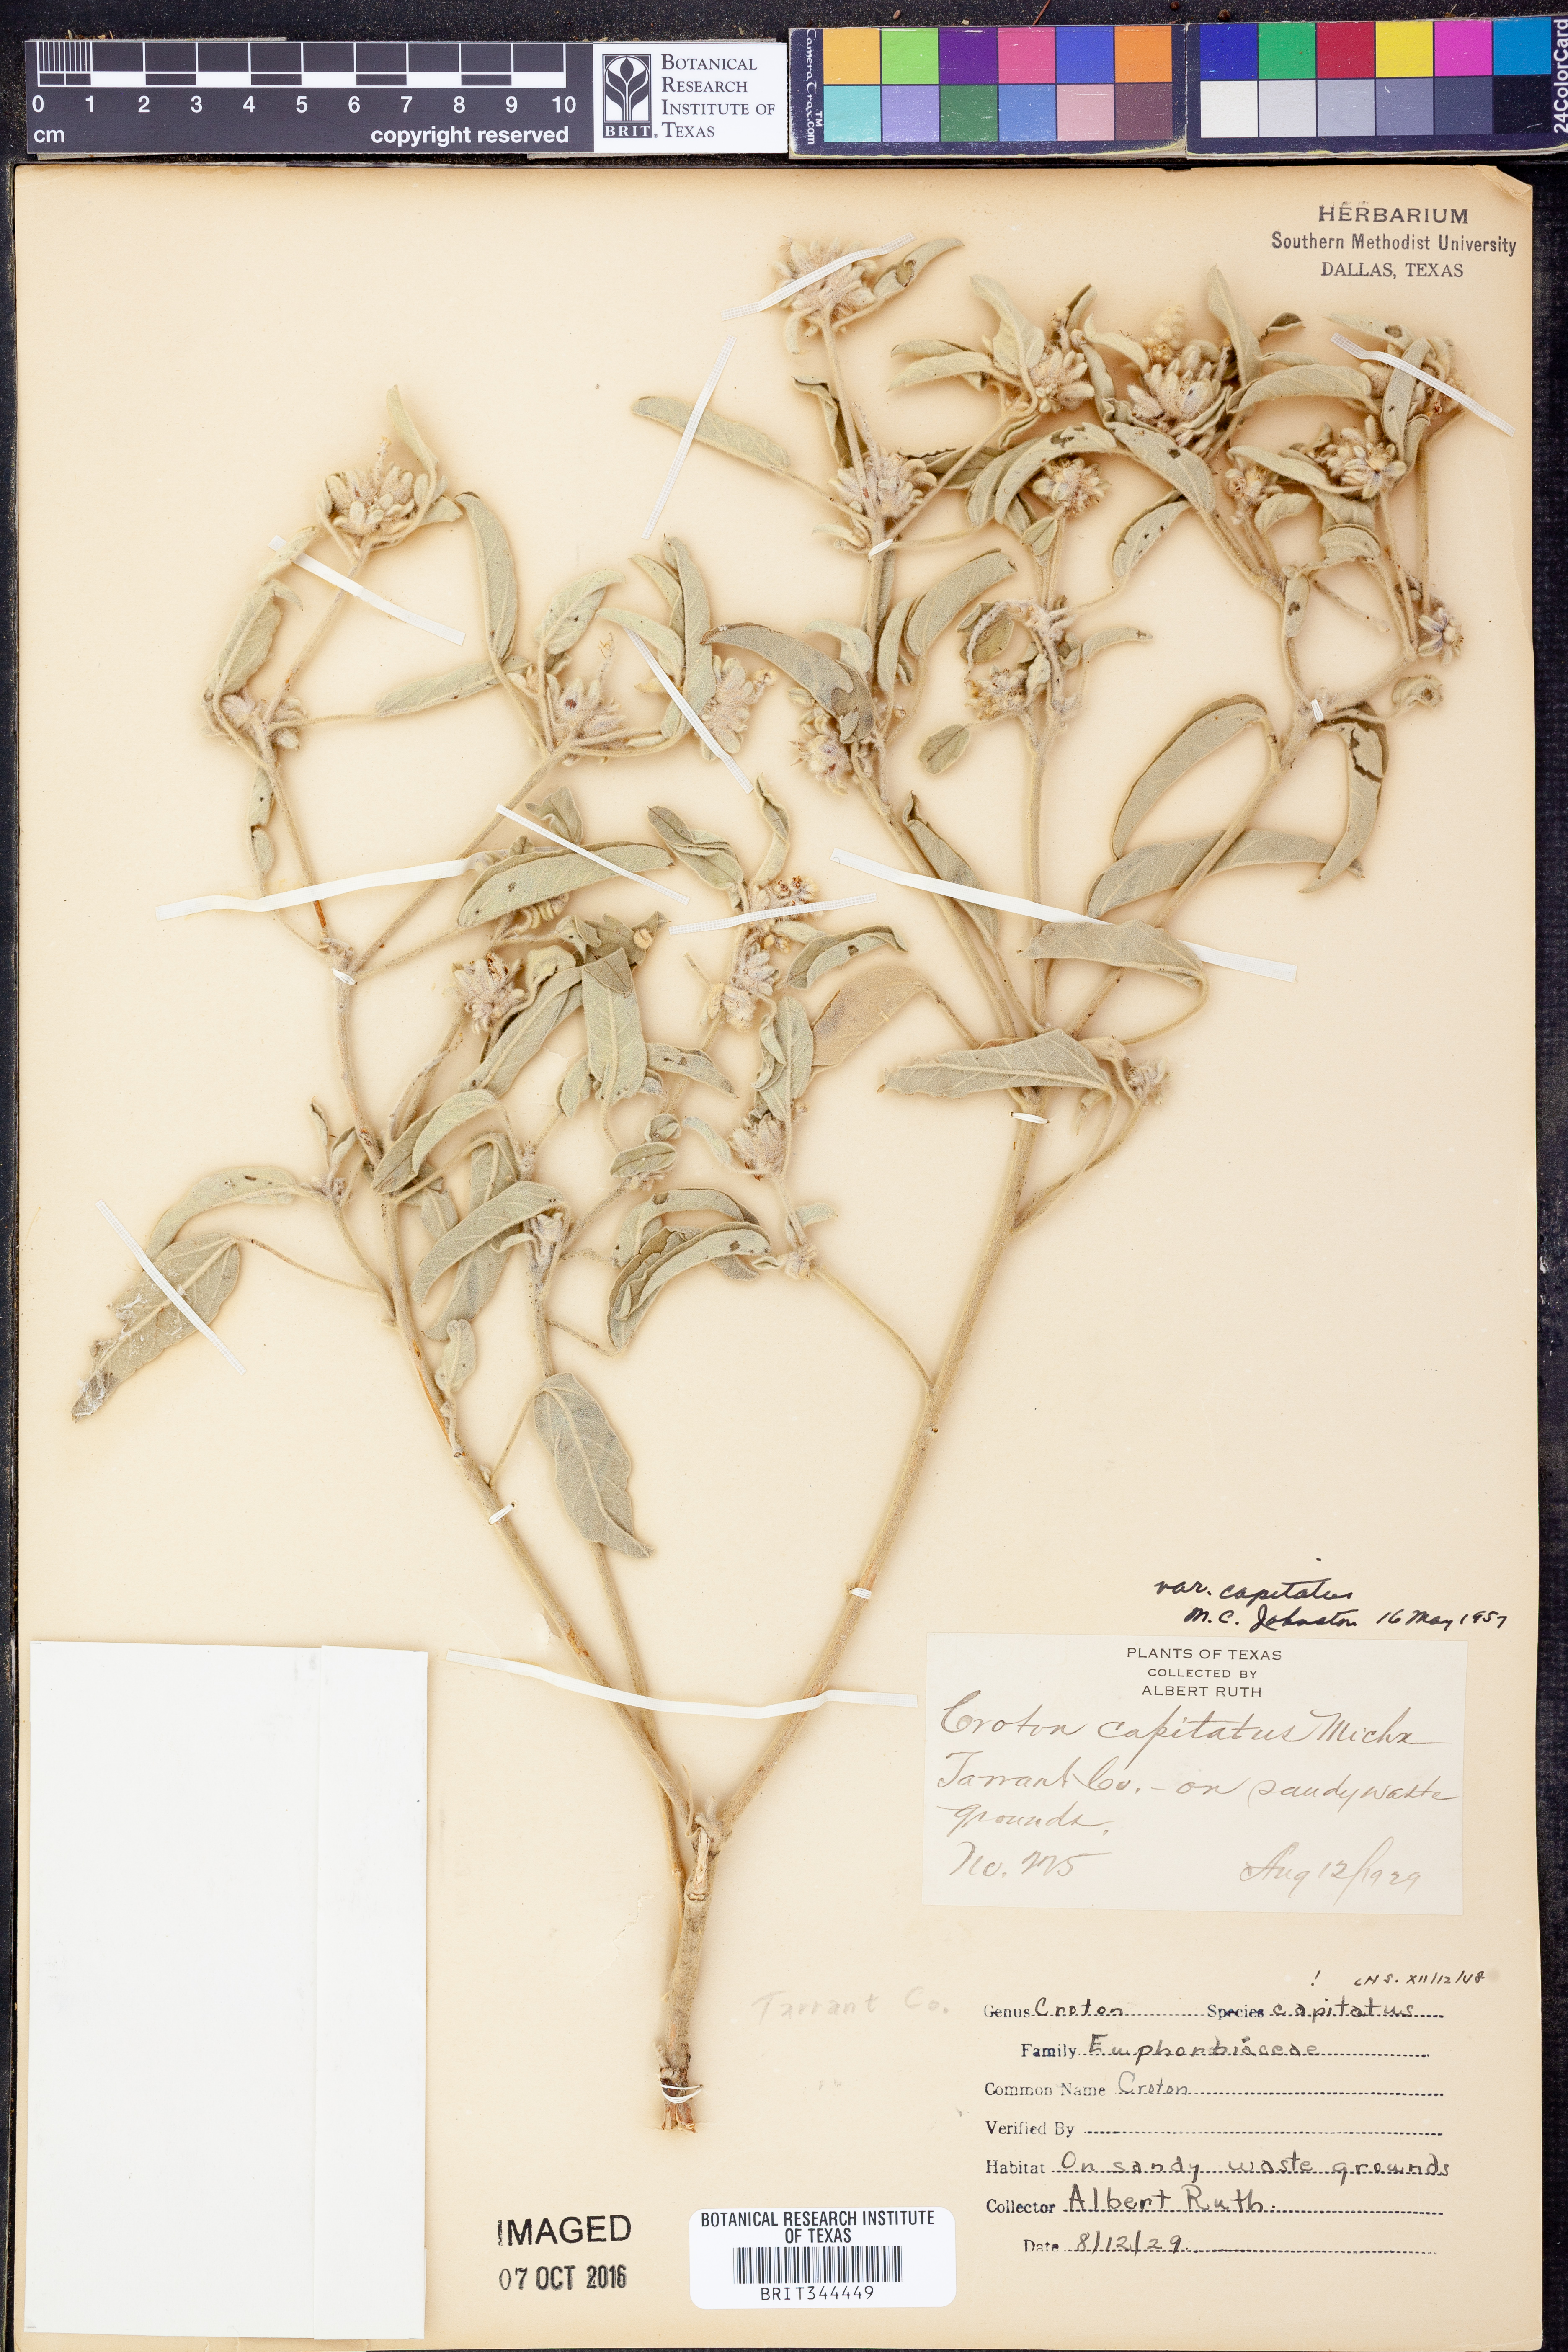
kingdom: Plantae
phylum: Tracheophyta
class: Magnoliopsida
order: Malpighiales
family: Euphorbiaceae
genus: Croton
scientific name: Croton capitatus
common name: Woolly croton
